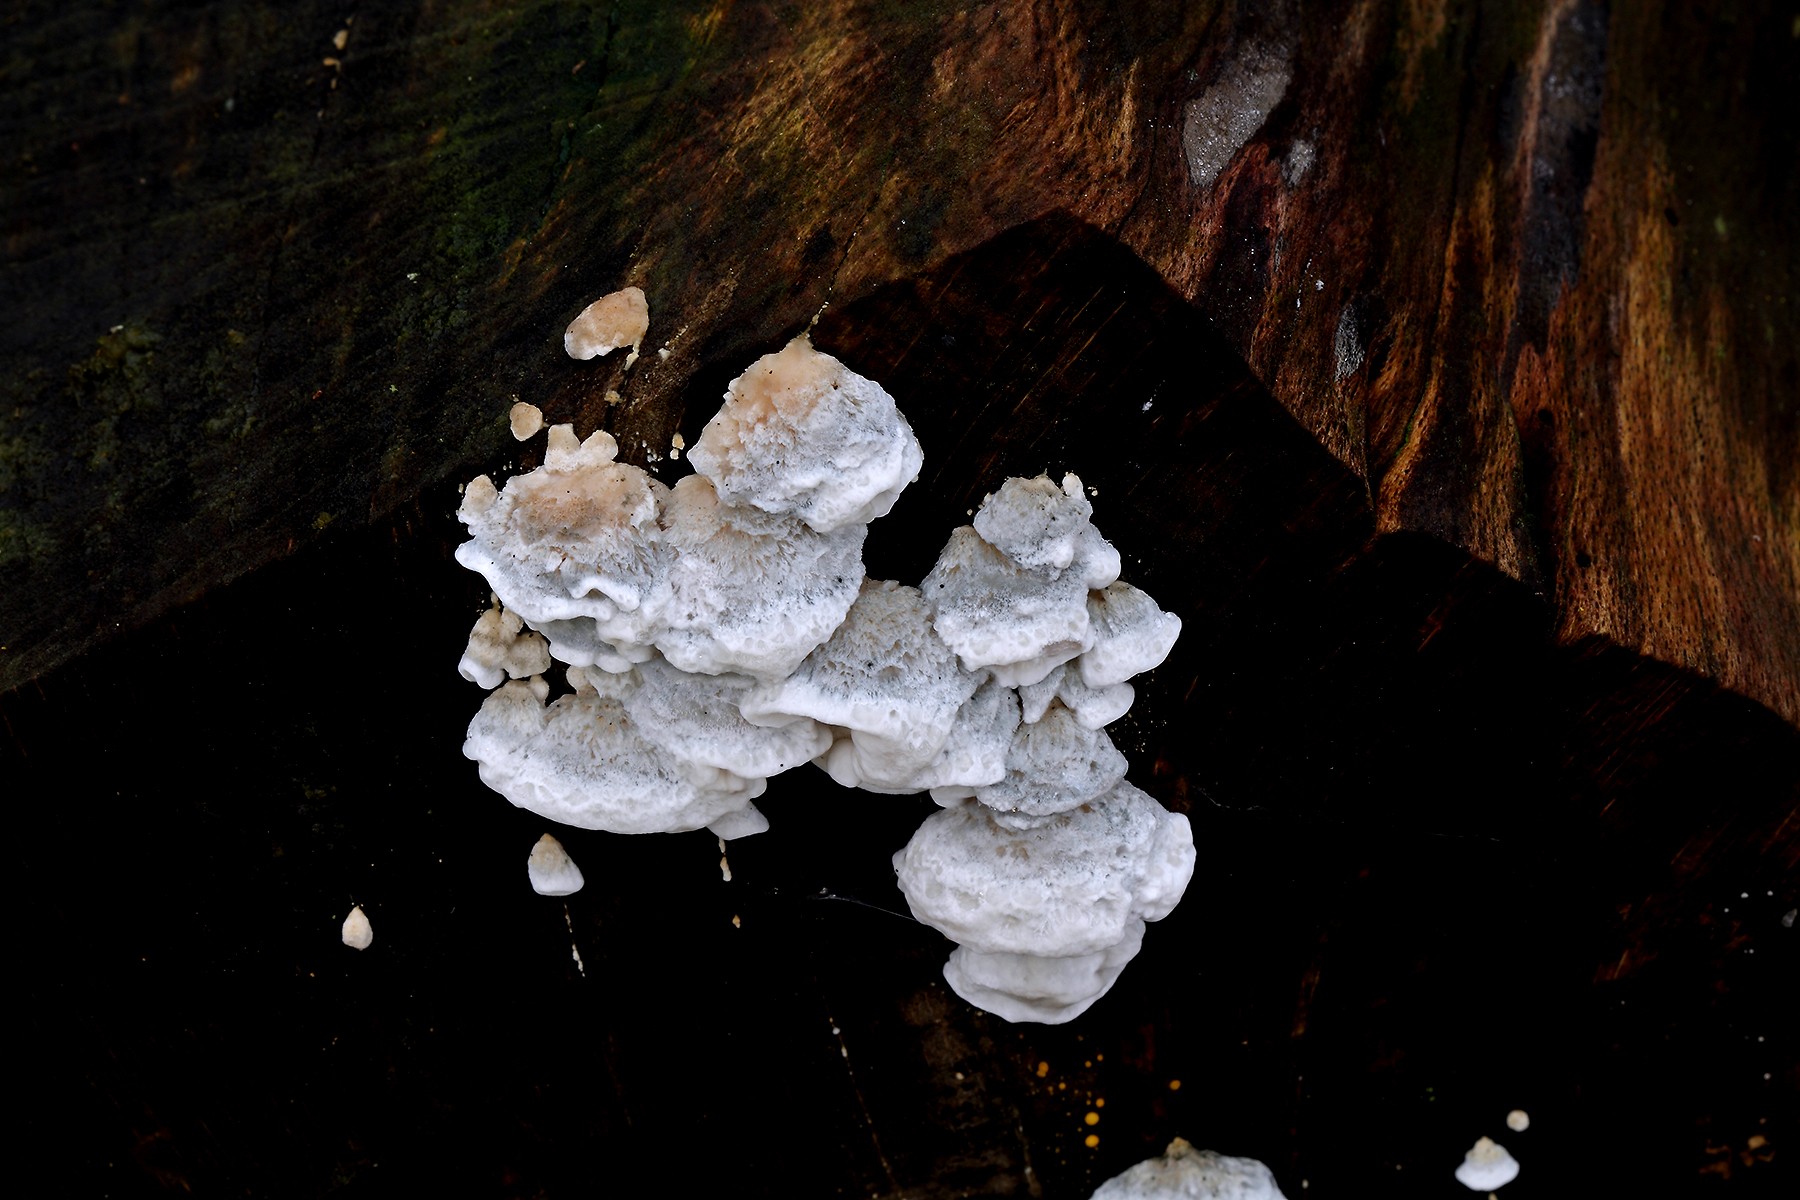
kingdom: Fungi
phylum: Basidiomycota
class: Agaricomycetes
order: Polyporales
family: Polyporaceae
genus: Cyanosporus
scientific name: Cyanosporus alni
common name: blegblå kødporesvamp
